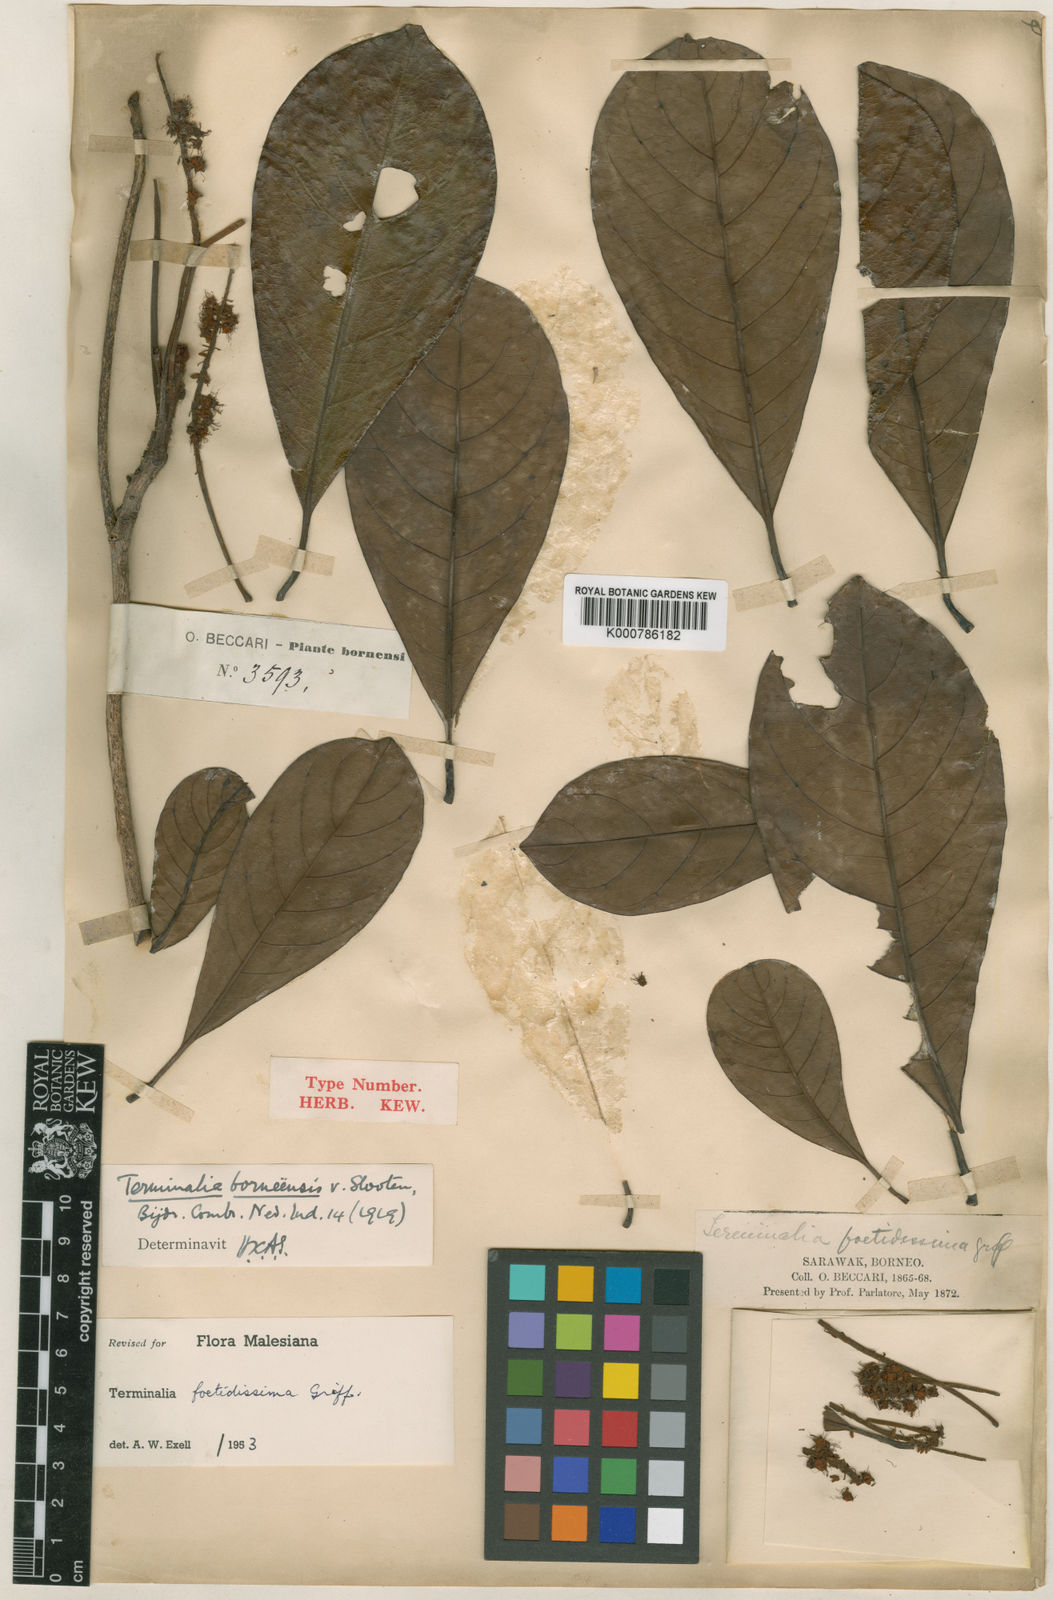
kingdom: Plantae
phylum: Tracheophyta
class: Magnoliopsida
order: Myrtales
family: Combretaceae
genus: Terminalia
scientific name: Terminalia foetidissima
